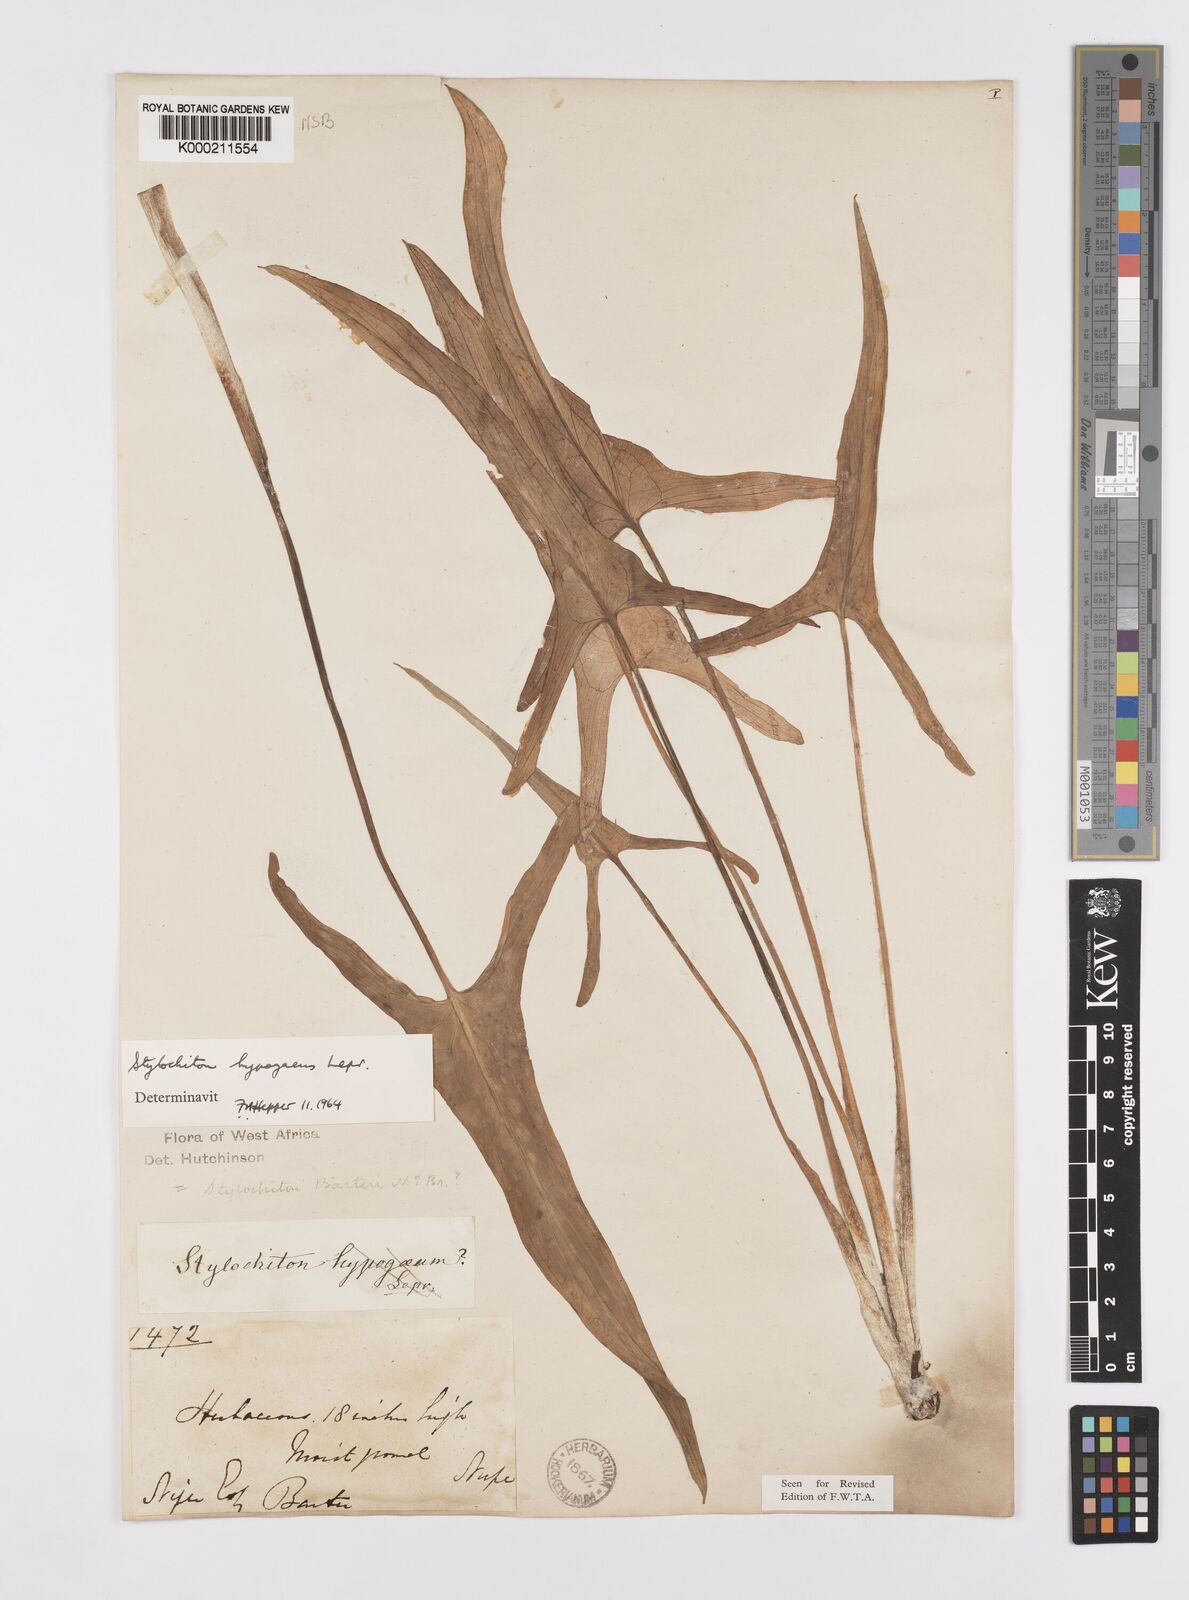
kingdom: Plantae
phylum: Tracheophyta
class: Liliopsida
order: Alismatales
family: Araceae
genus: Stylochaeton
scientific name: Stylochaeton
